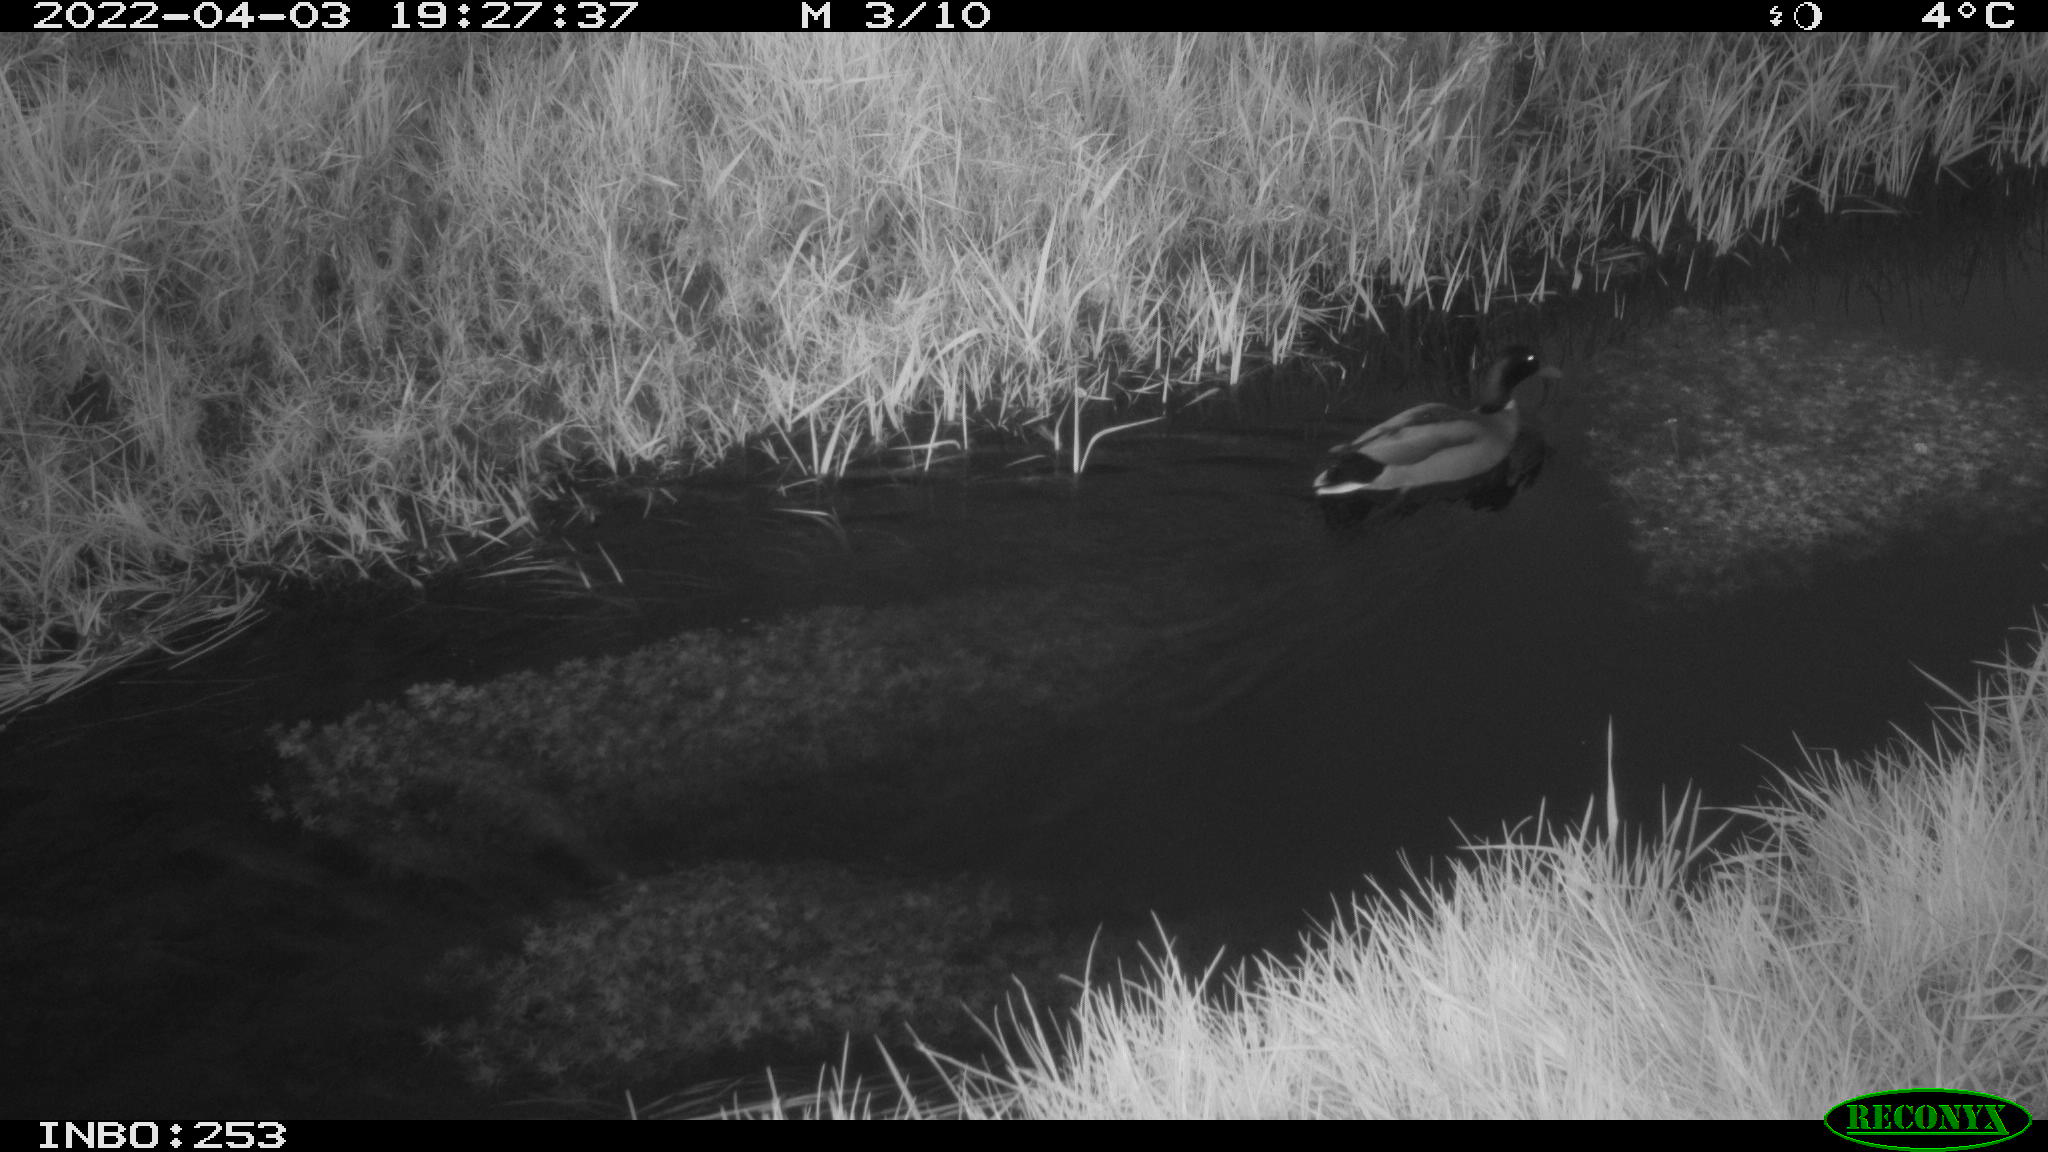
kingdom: Animalia
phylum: Chordata
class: Aves
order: Anseriformes
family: Anatidae
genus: Anas
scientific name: Anas platyrhynchos
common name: Mallard
